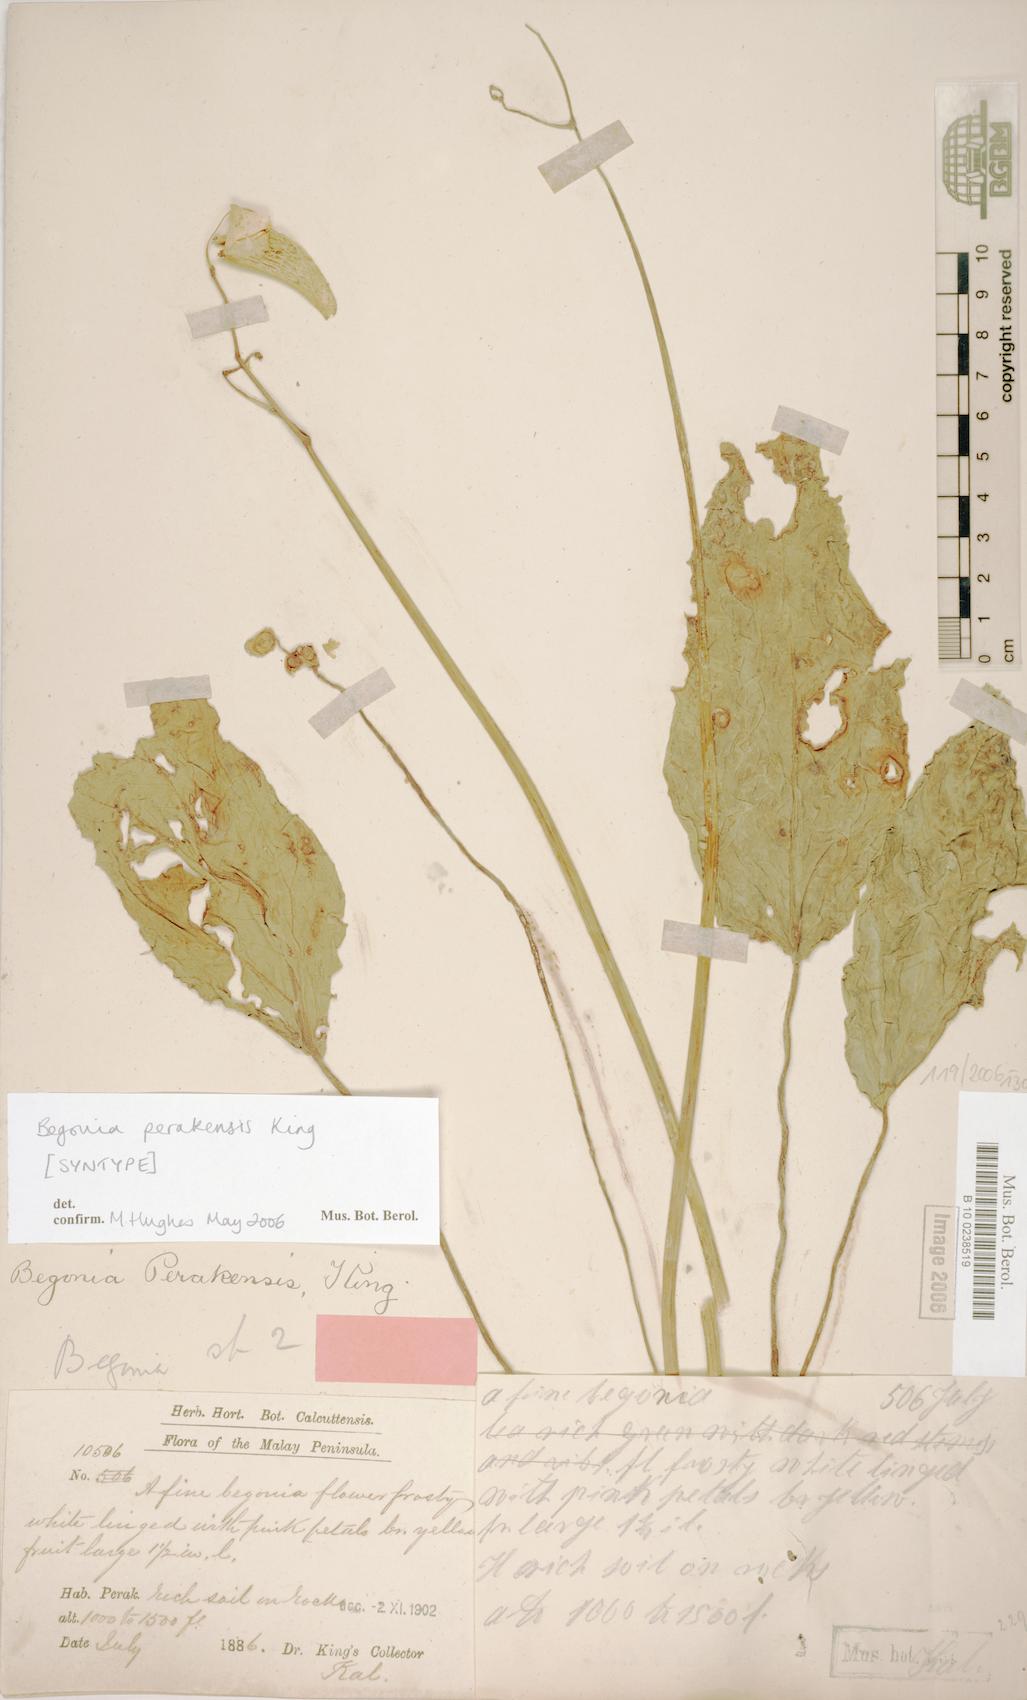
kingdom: Plantae
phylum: Tracheophyta
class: Magnoliopsida
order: Cucurbitales
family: Begoniaceae
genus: Begonia
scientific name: Begonia perakensis
